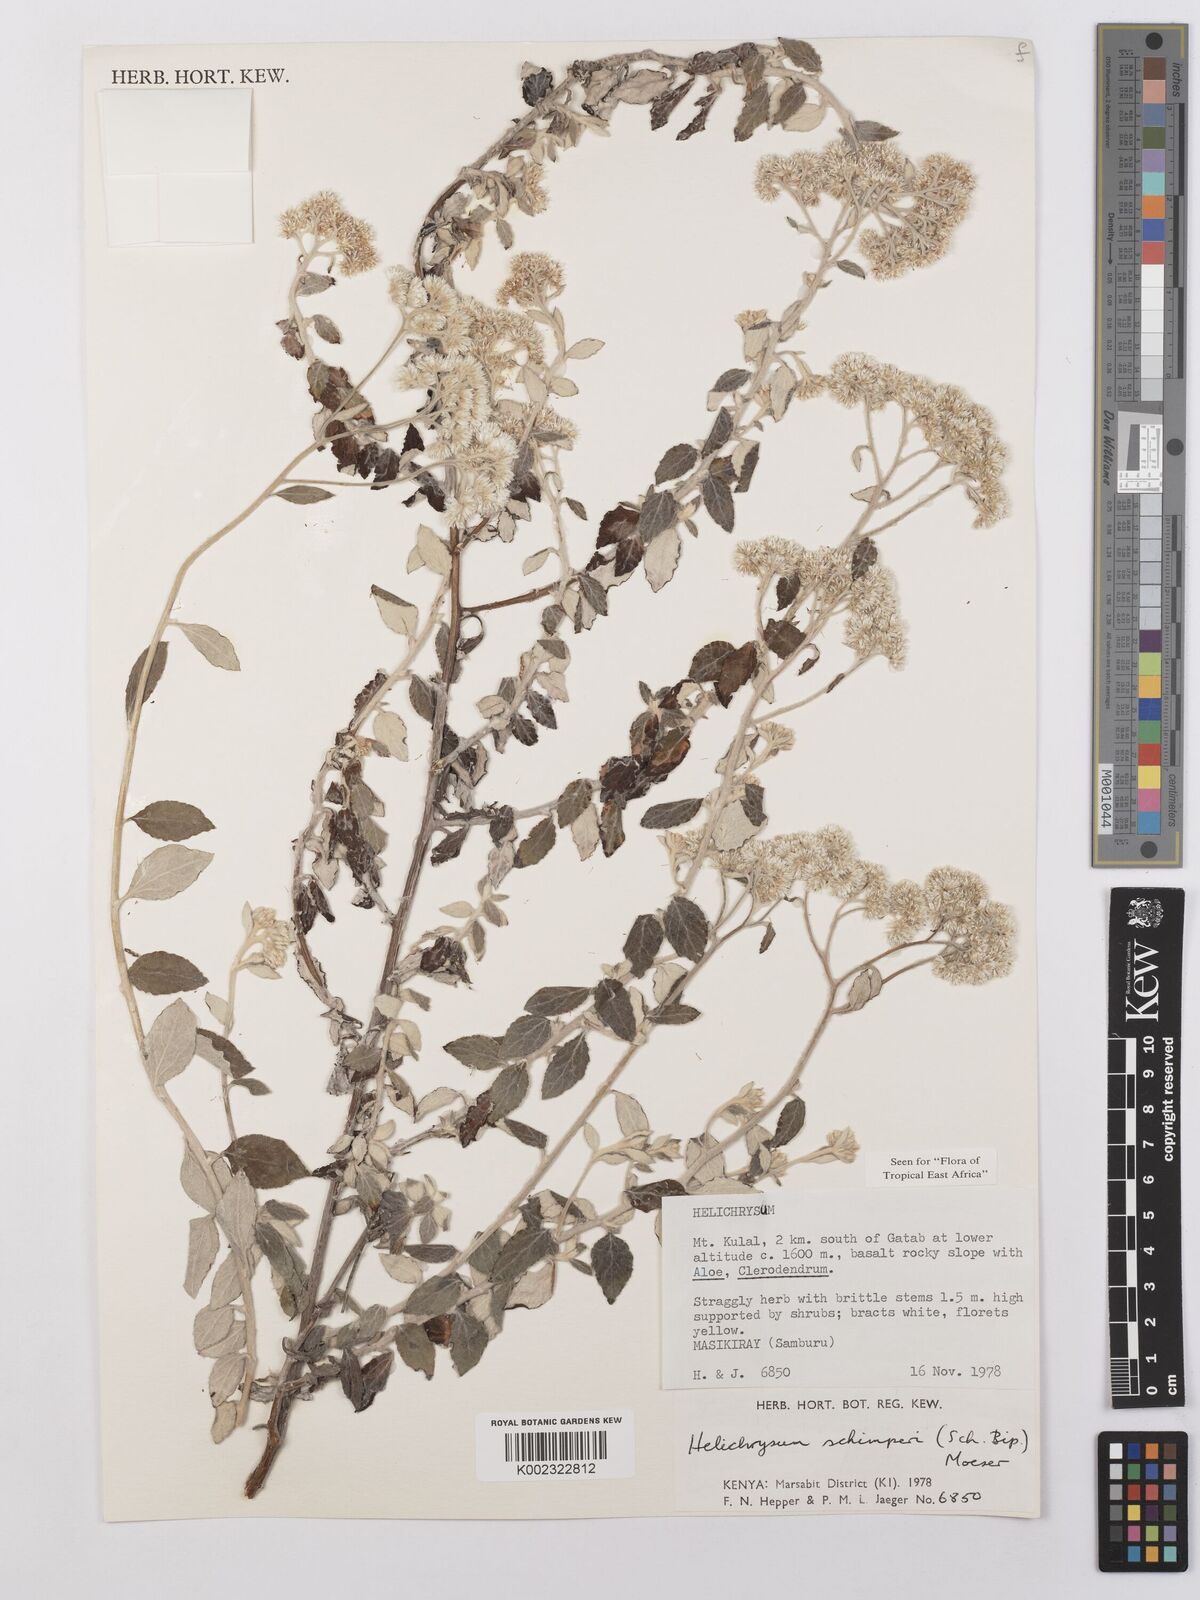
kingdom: Plantae
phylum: Tracheophyta
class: Magnoliopsida
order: Asterales
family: Asteraceae
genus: Helichrysum
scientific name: Helichrysum schimperi
